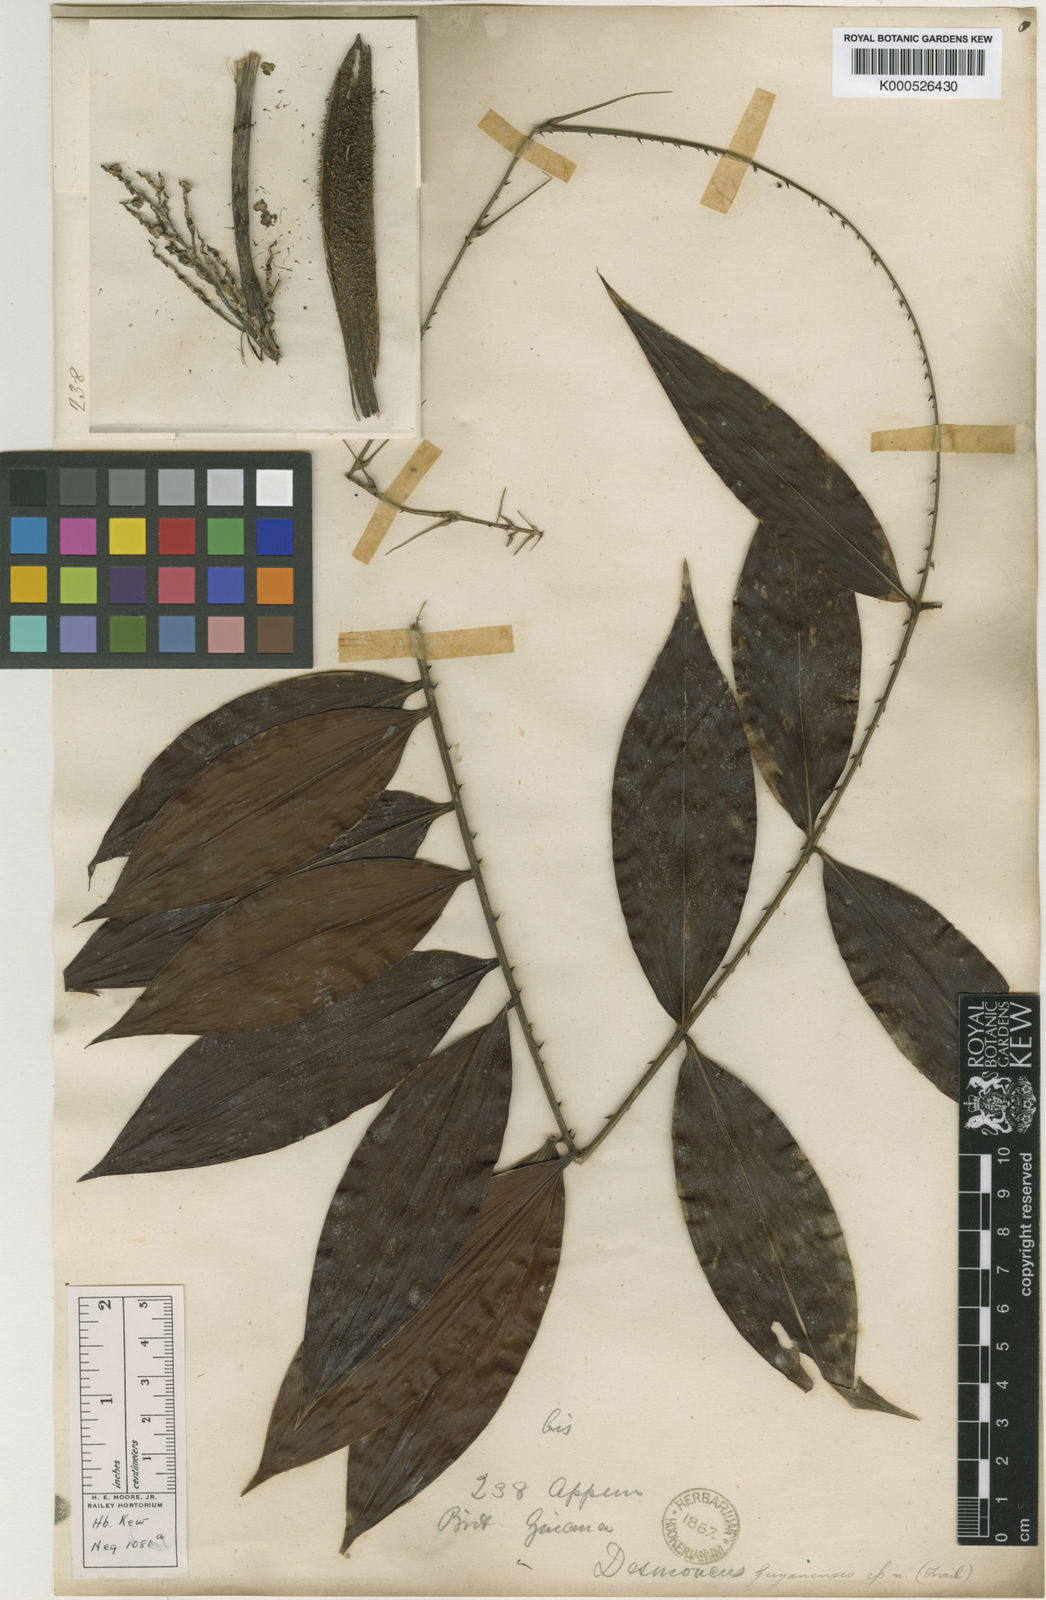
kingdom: Plantae
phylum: Tracheophyta
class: Liliopsida
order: Arecales
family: Arecaceae
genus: Desmoncus
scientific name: Desmoncus
